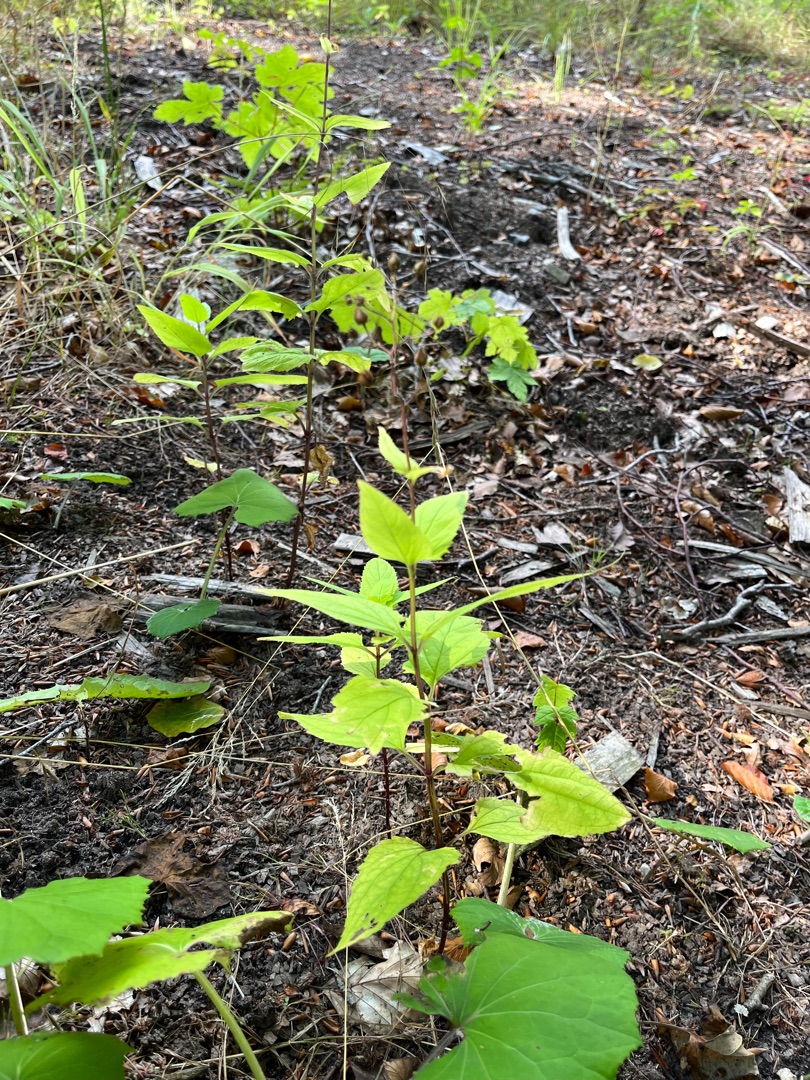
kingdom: Plantae
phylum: Tracheophyta
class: Magnoliopsida
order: Lamiales
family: Scrophulariaceae
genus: Scrophularia
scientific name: Scrophularia nodosa
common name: Knoldet brunrod
